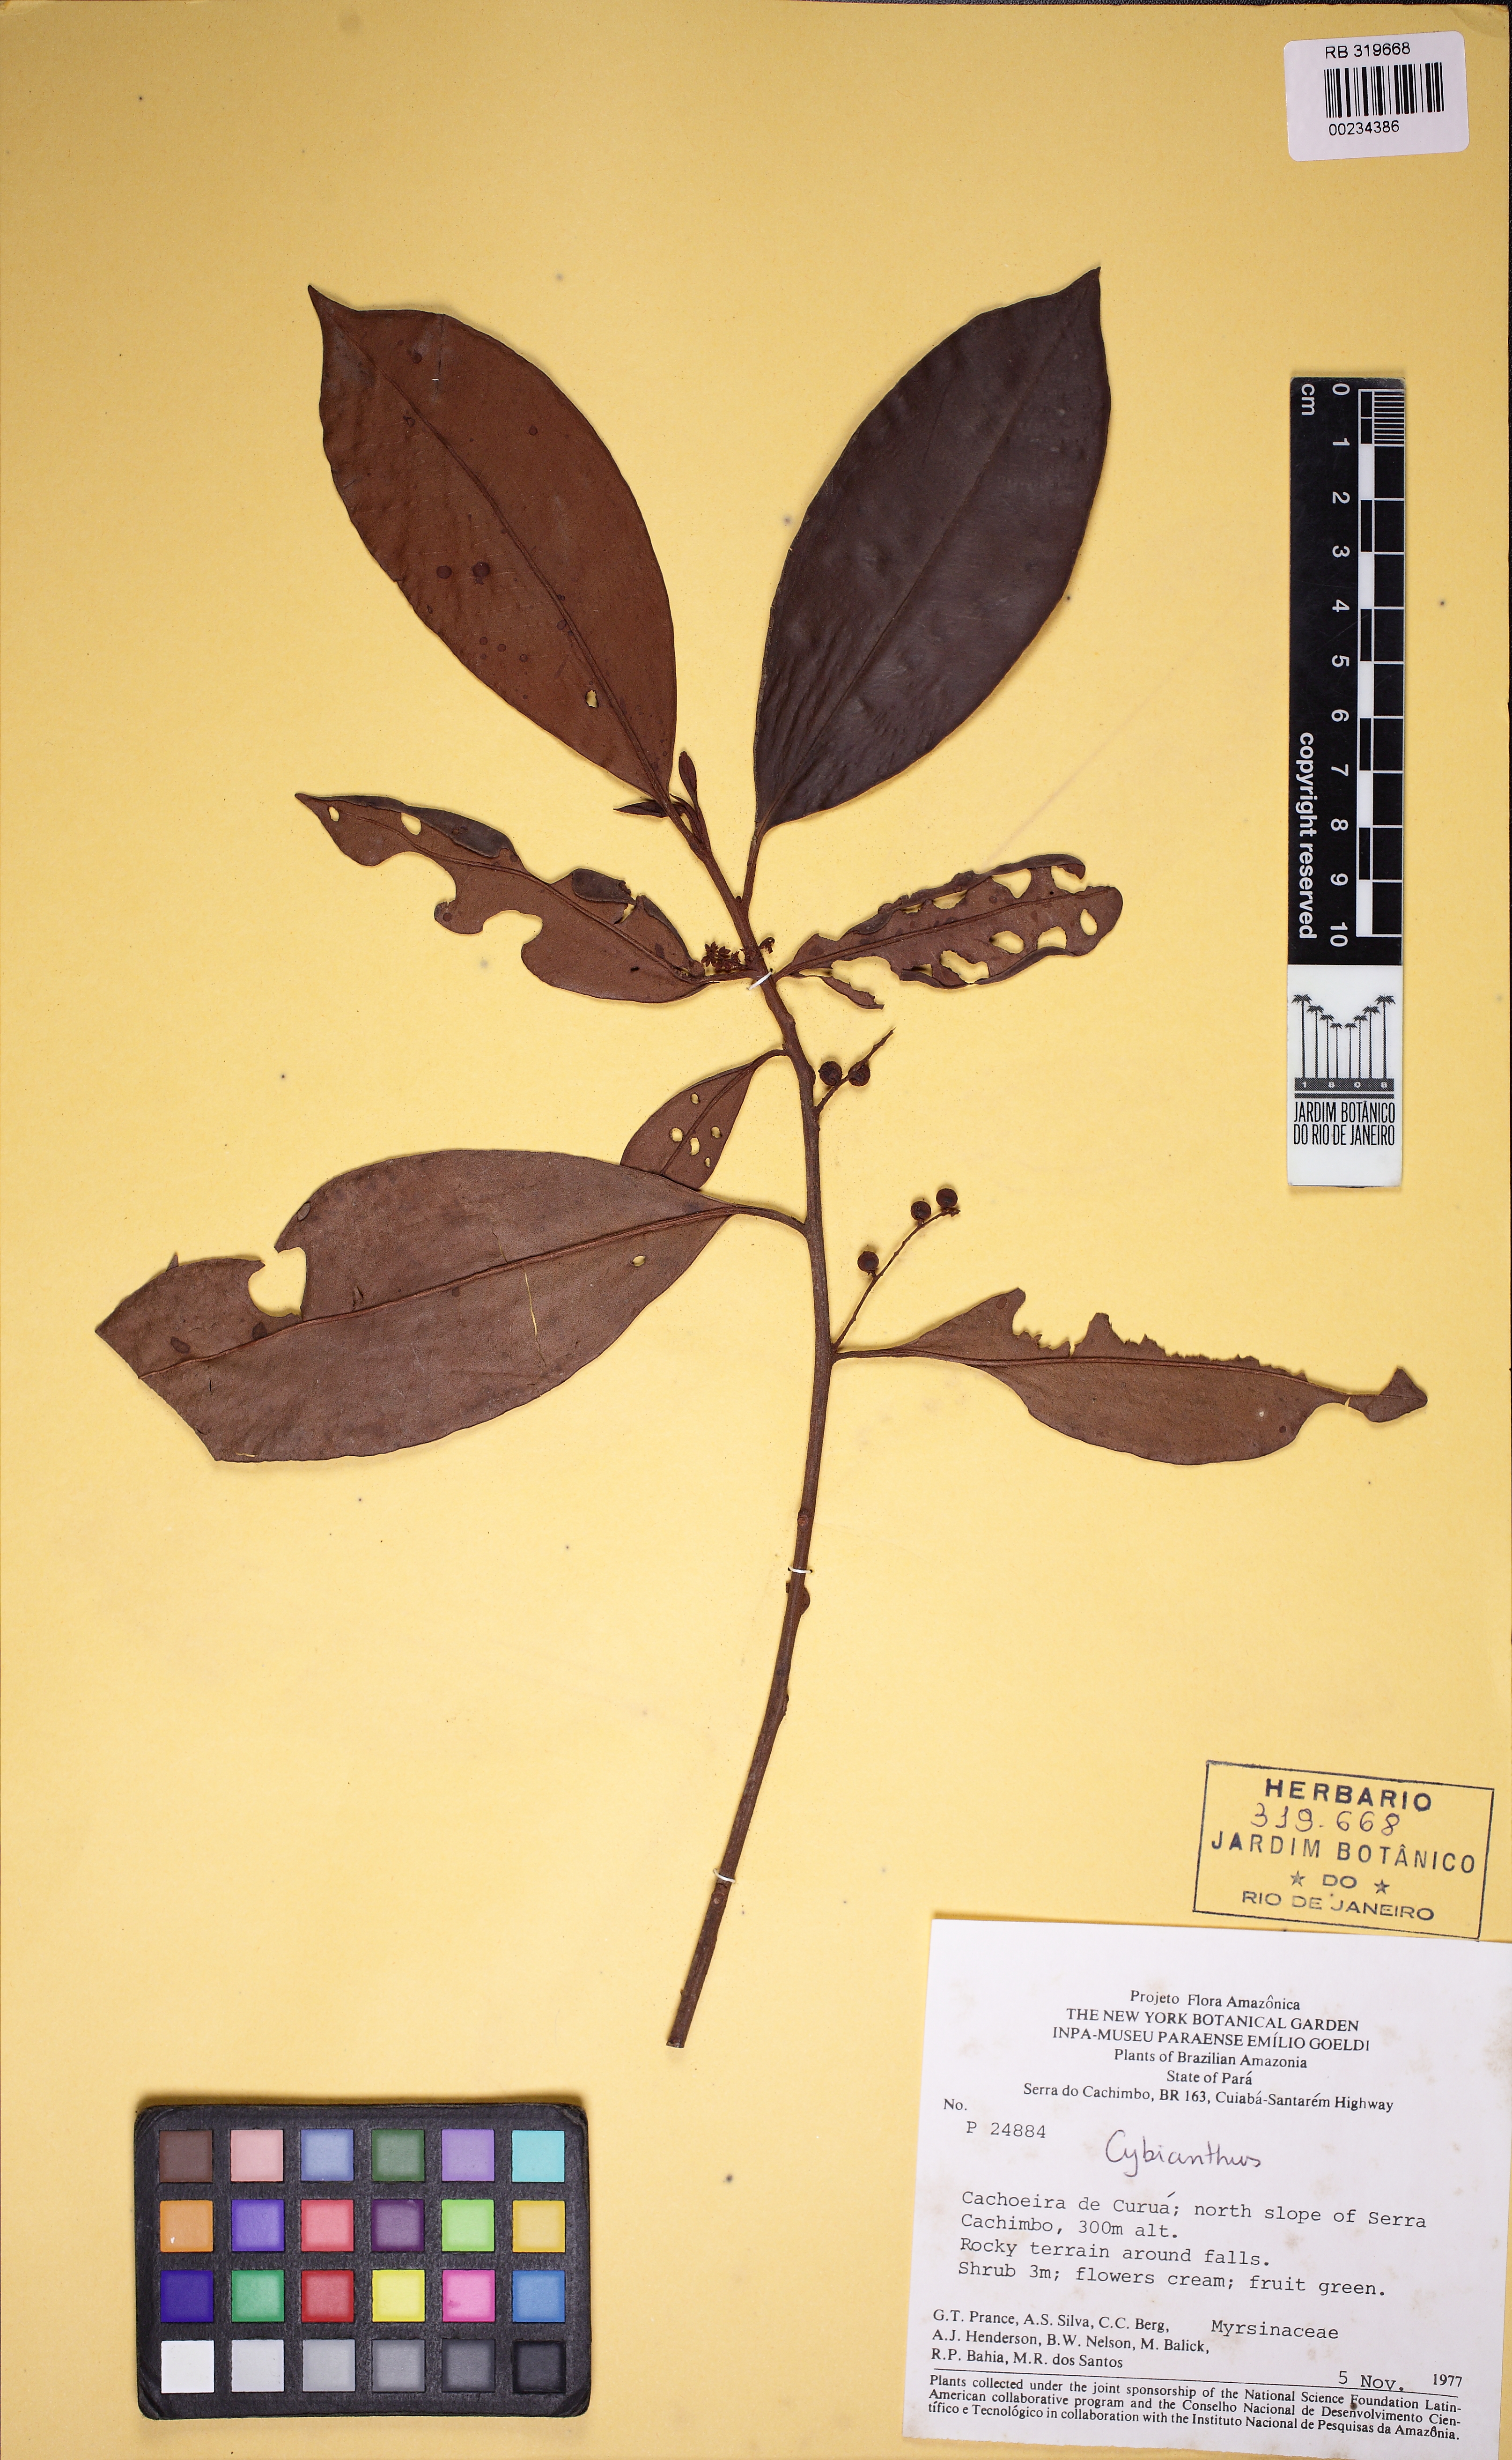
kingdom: Plantae
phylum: Tracheophyta
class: Magnoliopsida
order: Ericales
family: Primulaceae
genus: Cybianthus
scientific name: Cybianthus
